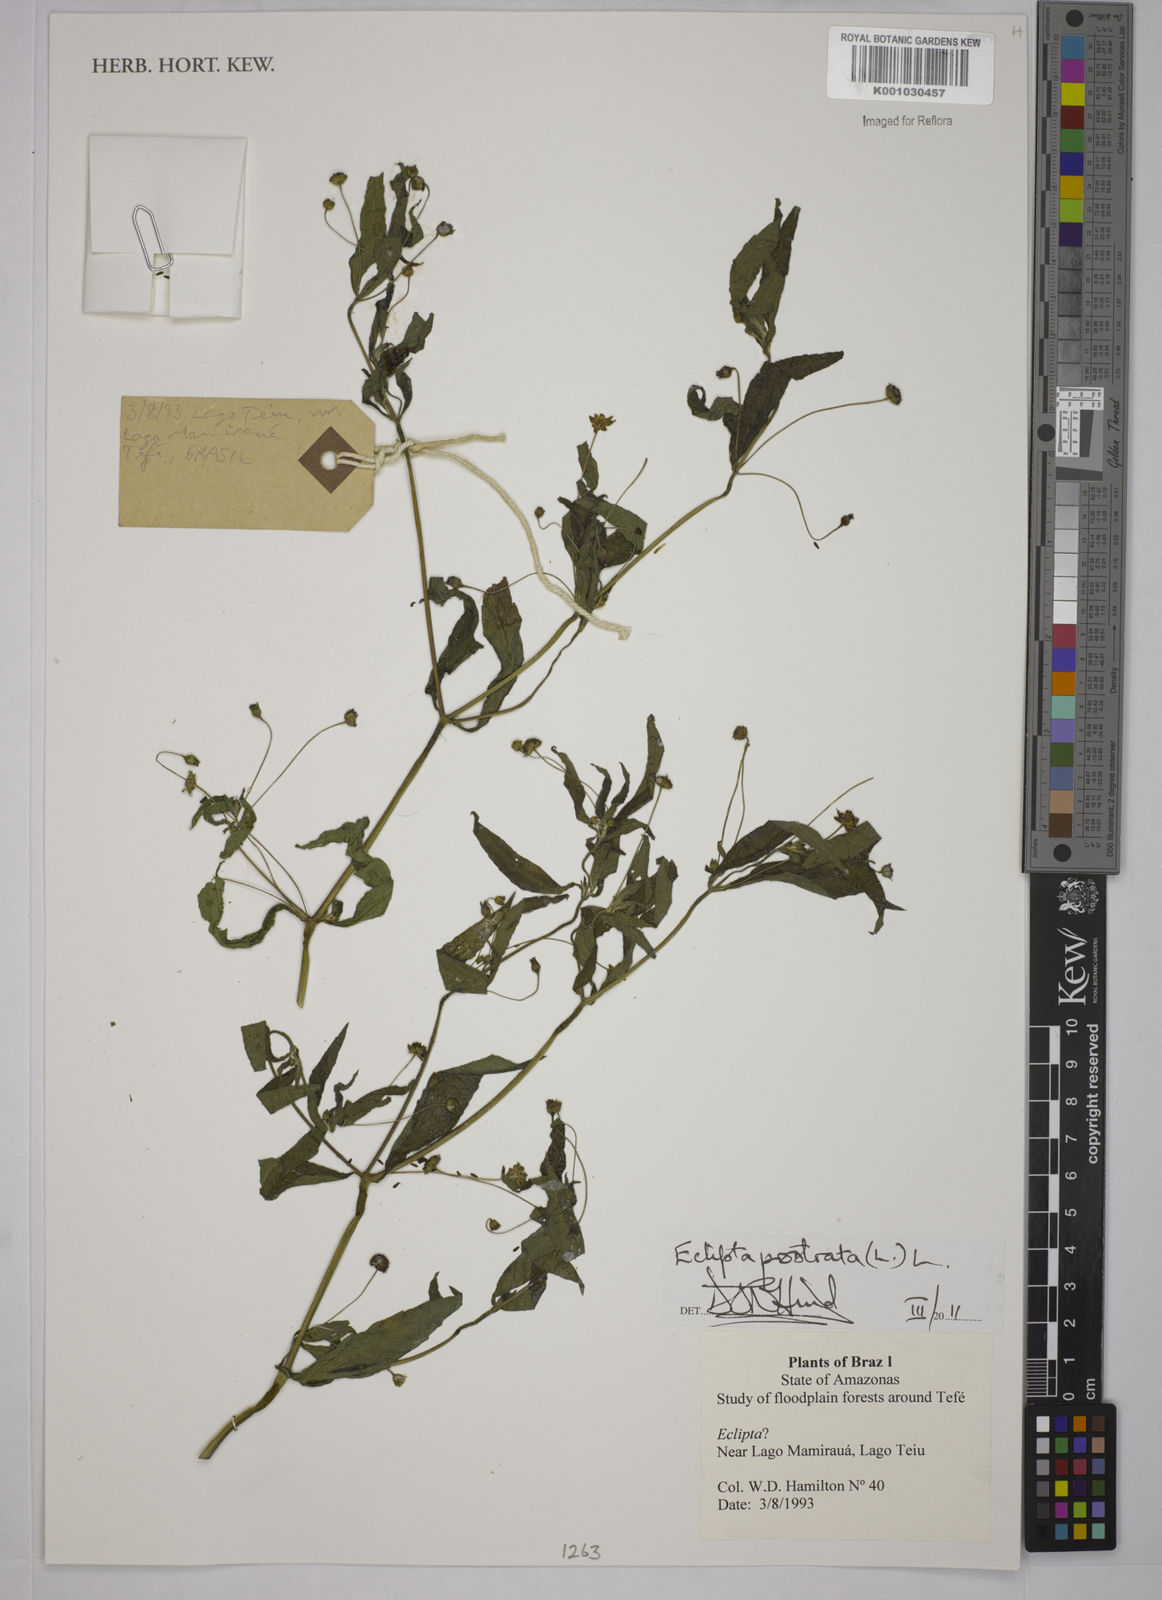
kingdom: Plantae
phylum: Tracheophyta
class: Magnoliopsida
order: Asterales
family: Asteraceae
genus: Eclipta
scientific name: Eclipta prostrata
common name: False daisy
